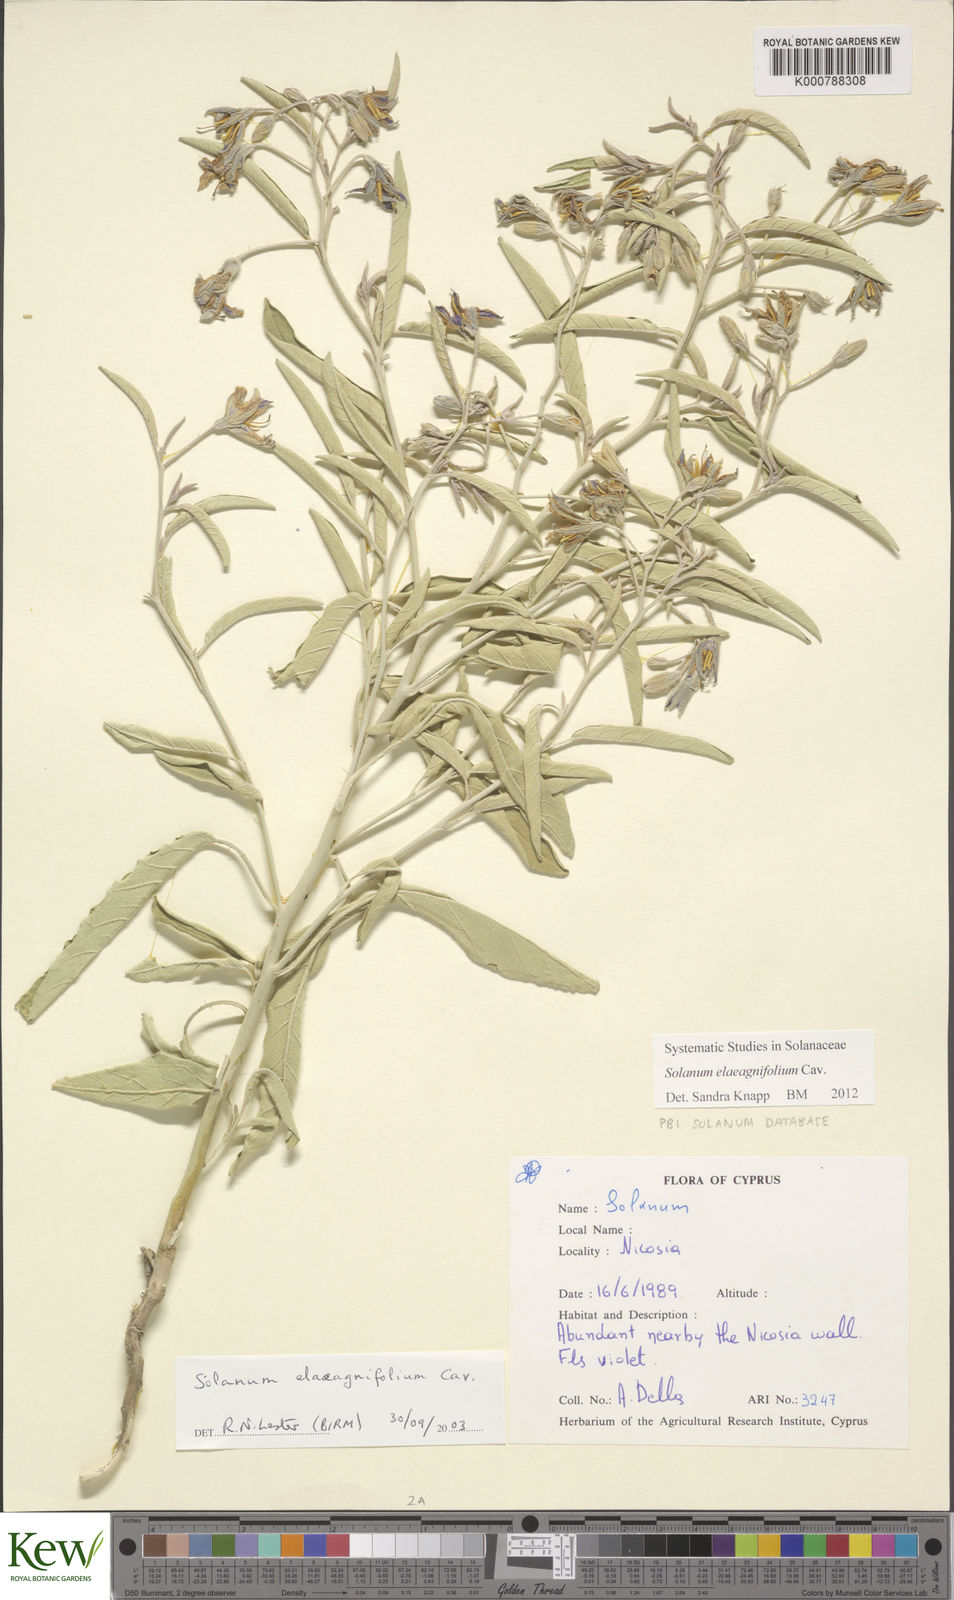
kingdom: Plantae
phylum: Tracheophyta
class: Magnoliopsida
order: Solanales
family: Solanaceae
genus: Solanum
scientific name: Solanum elaeagnifolium
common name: Silverleaf nightshade
